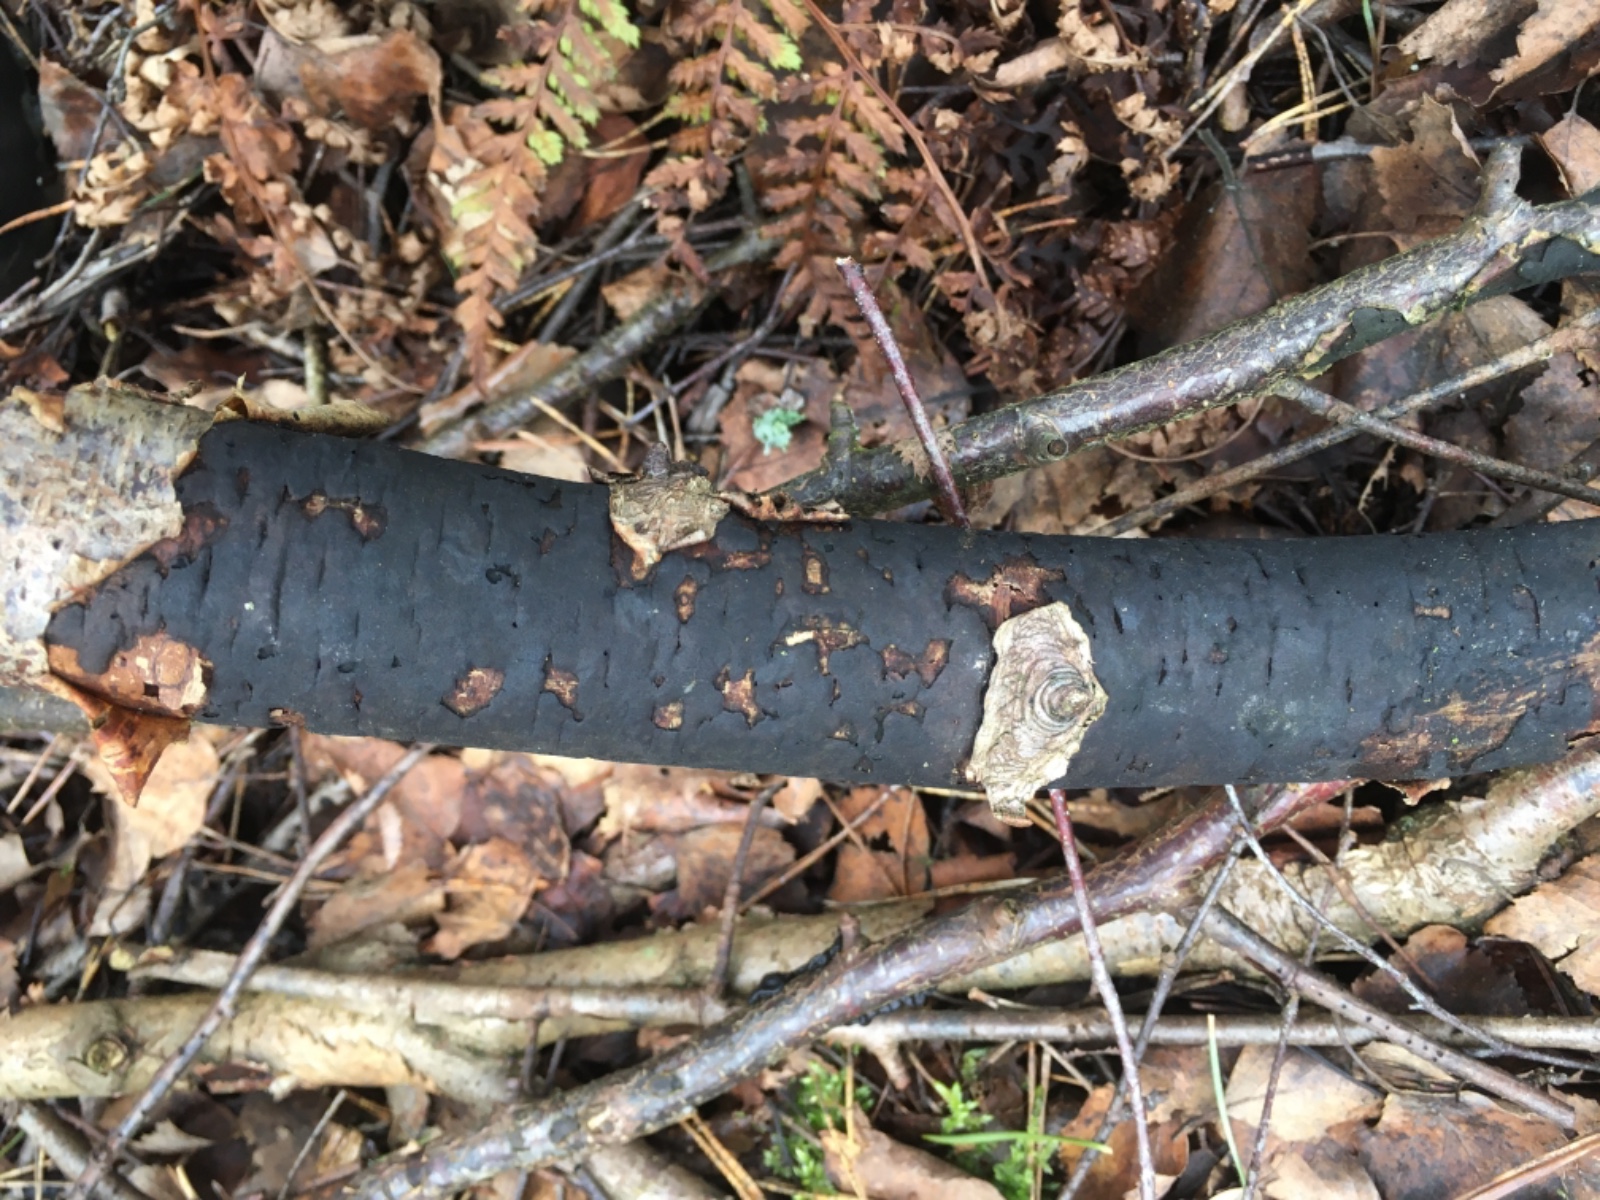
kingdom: Fungi
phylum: Ascomycota
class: Sordariomycetes
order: Xylariales
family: Diatrypaceae
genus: Diatrype
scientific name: Diatrype
